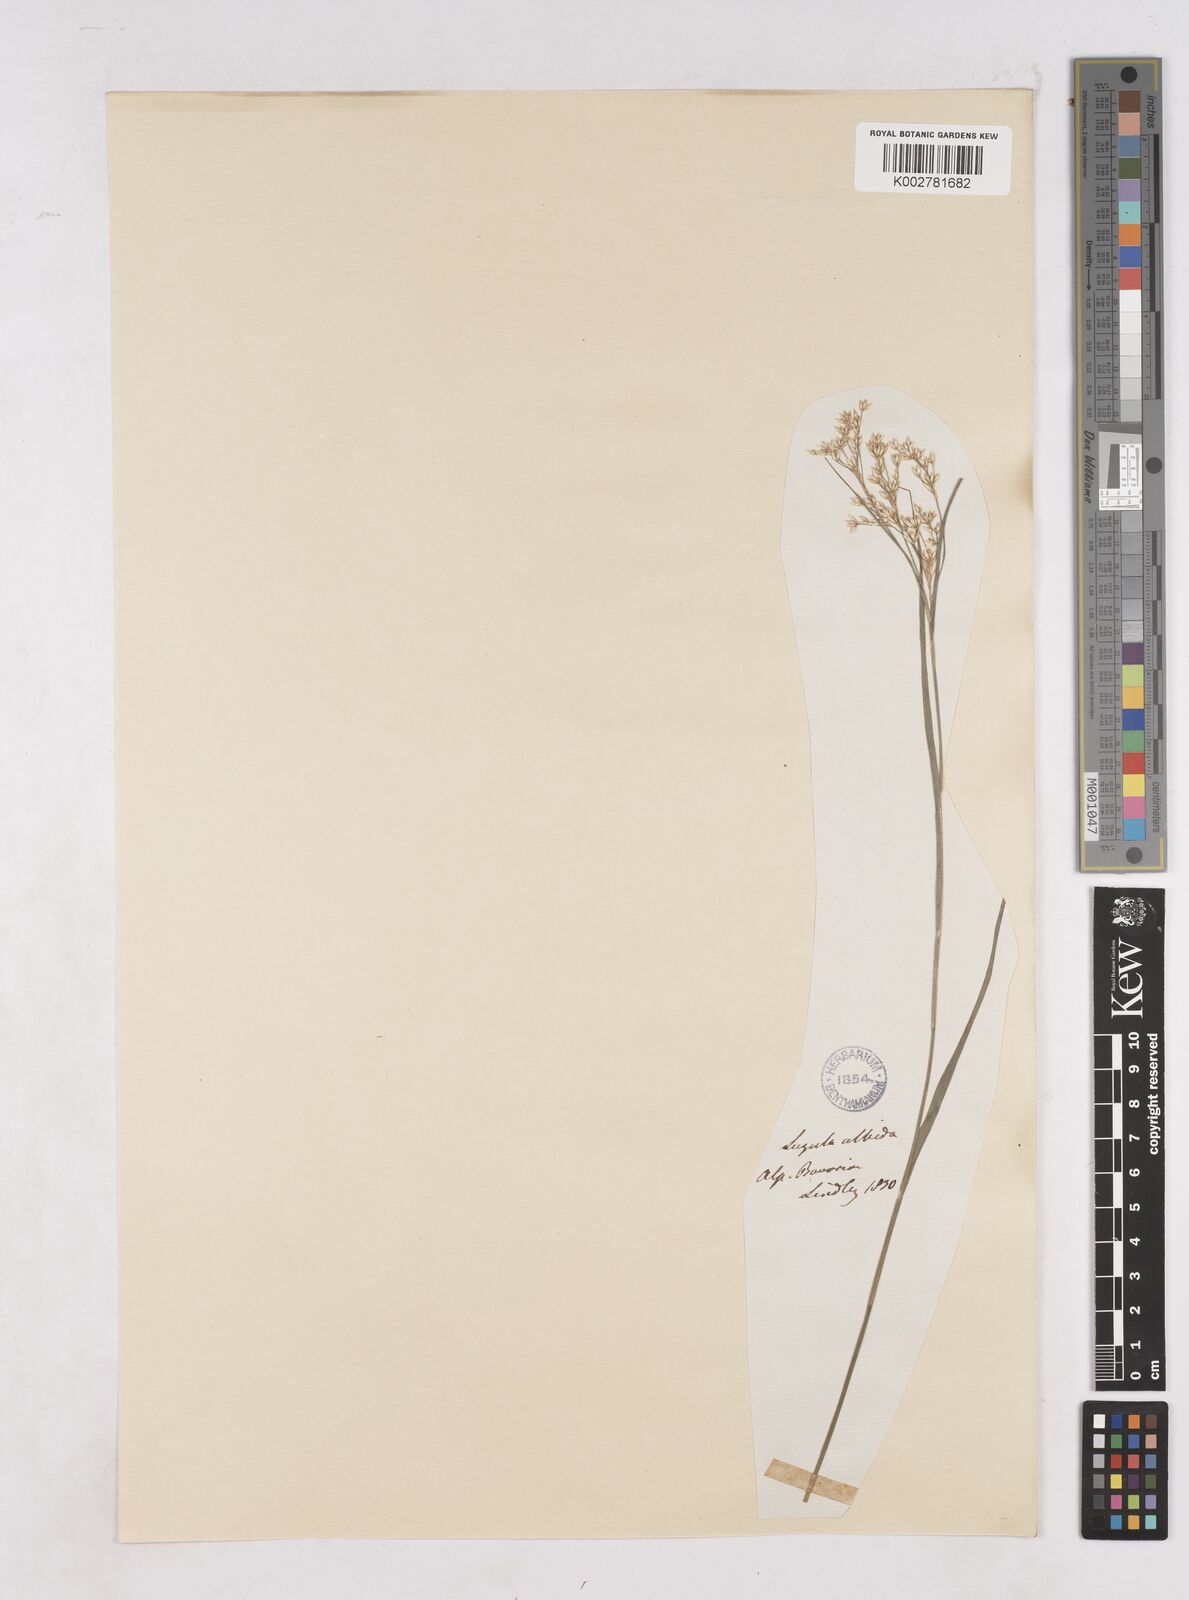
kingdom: Plantae
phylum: Tracheophyta
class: Liliopsida
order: Poales
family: Juncaceae
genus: Luzula
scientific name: Luzula luzuloides
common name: White wood-rush
